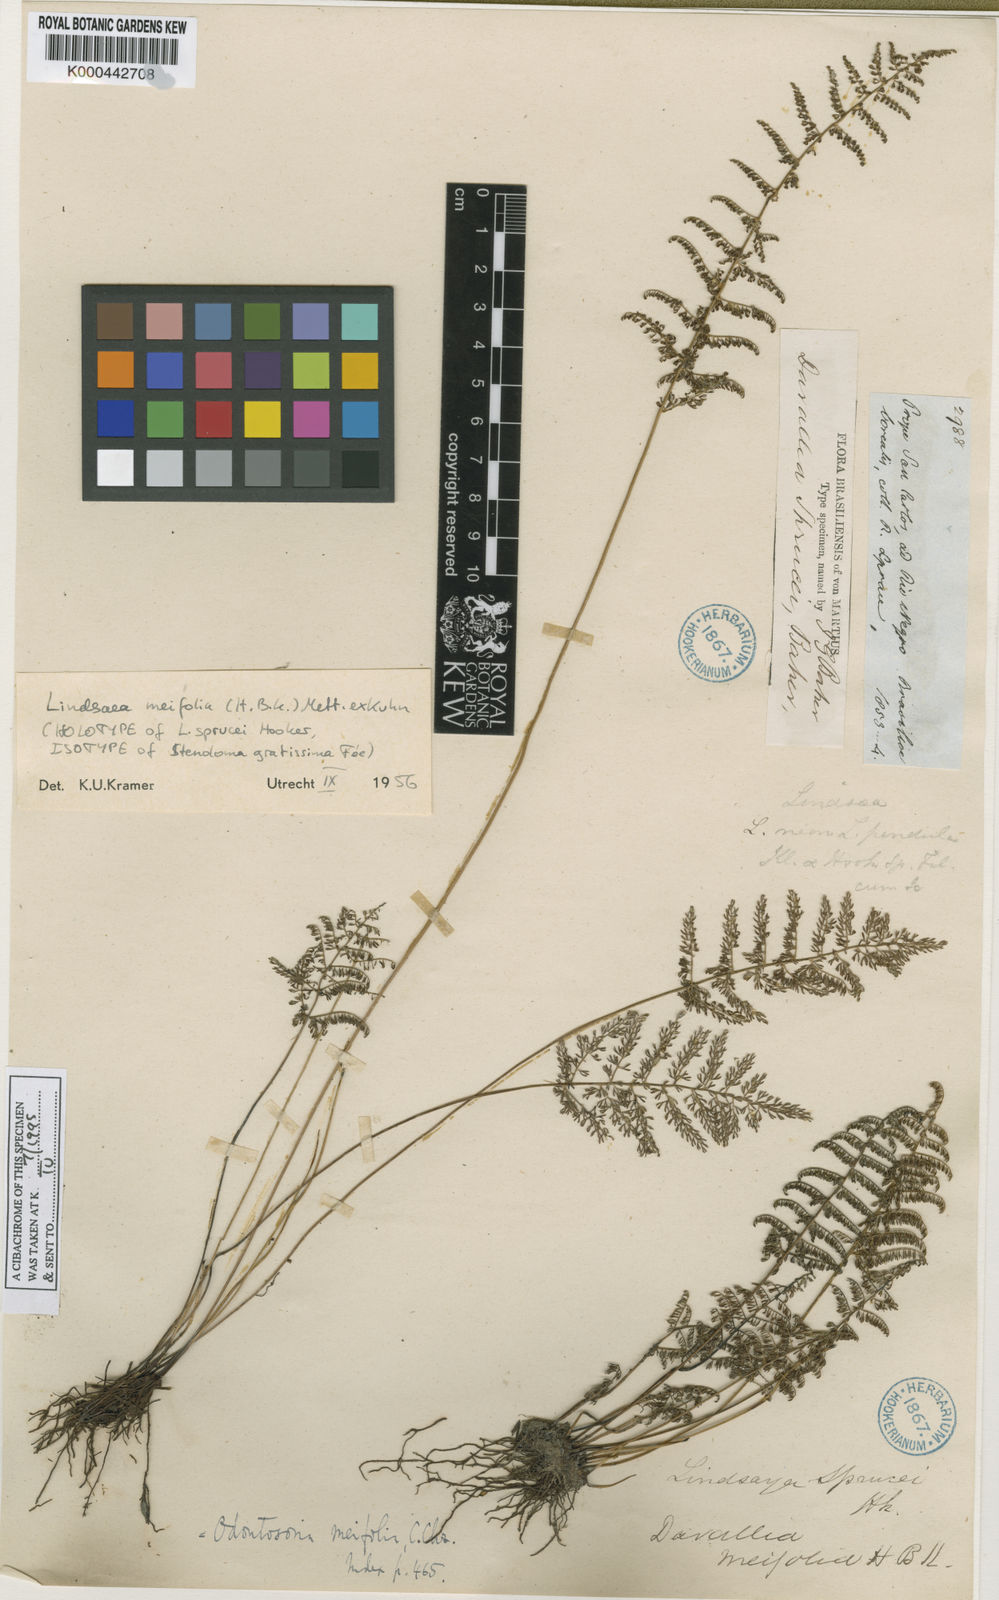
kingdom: Plantae
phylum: Tracheophyta
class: Polypodiopsida
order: Polypodiales
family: Lindsaeaceae
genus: Lindsaea
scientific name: Lindsaea
